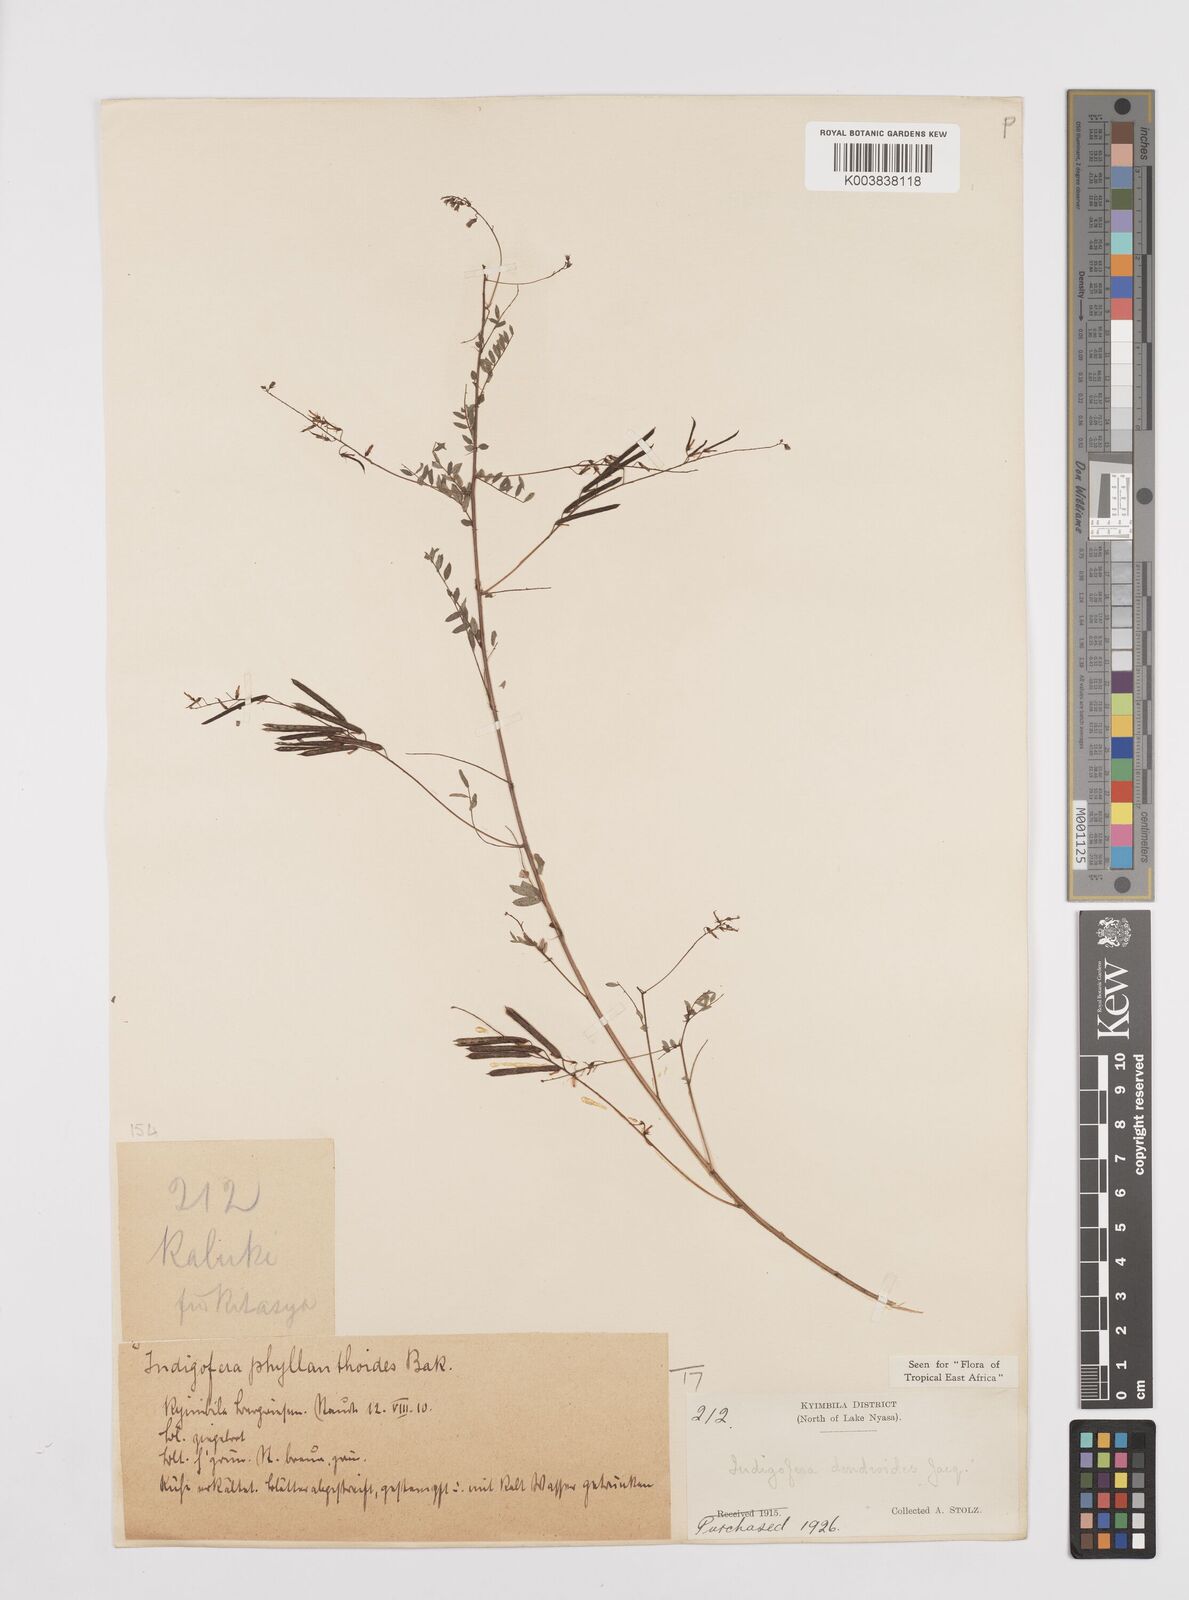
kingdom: Plantae
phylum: Tracheophyta
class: Magnoliopsida
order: Fabales
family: Fabaceae
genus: Indigofera
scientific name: Indigofera dendroides
